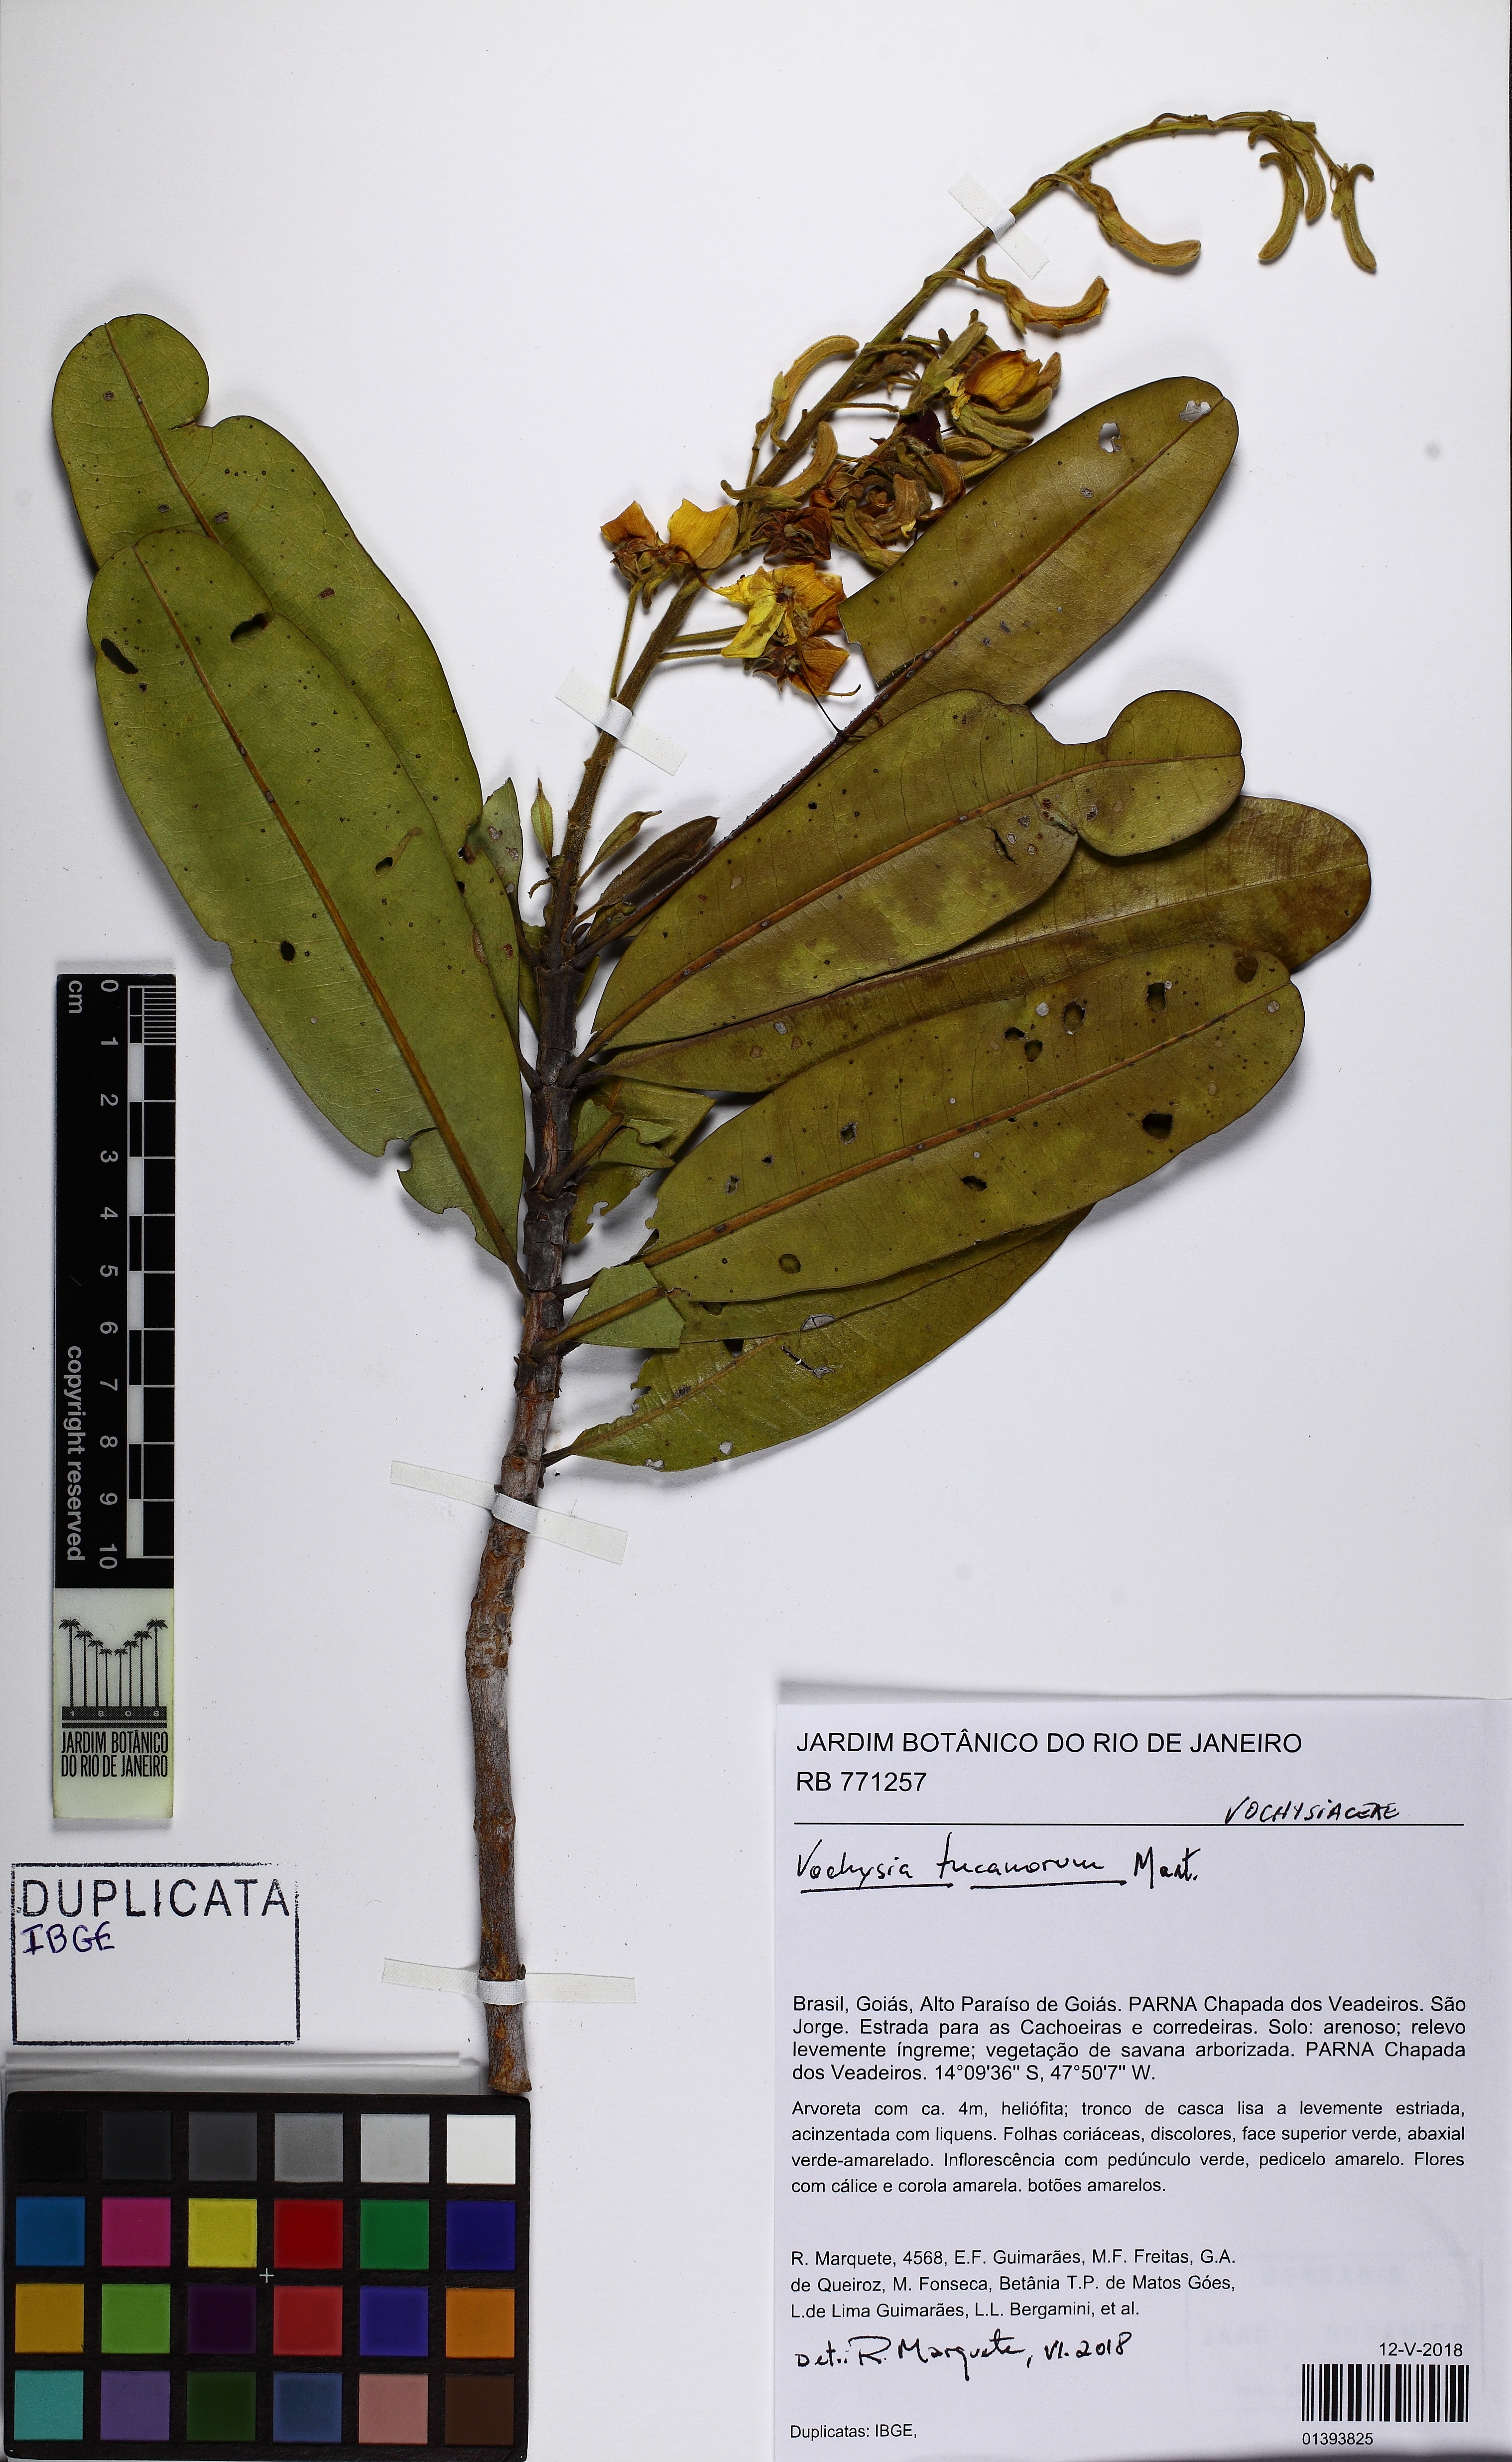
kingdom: Plantae
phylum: Tracheophyta
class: Magnoliopsida
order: Myrtales
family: Vochysiaceae
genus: Vochysia
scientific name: Vochysia tucanorum
